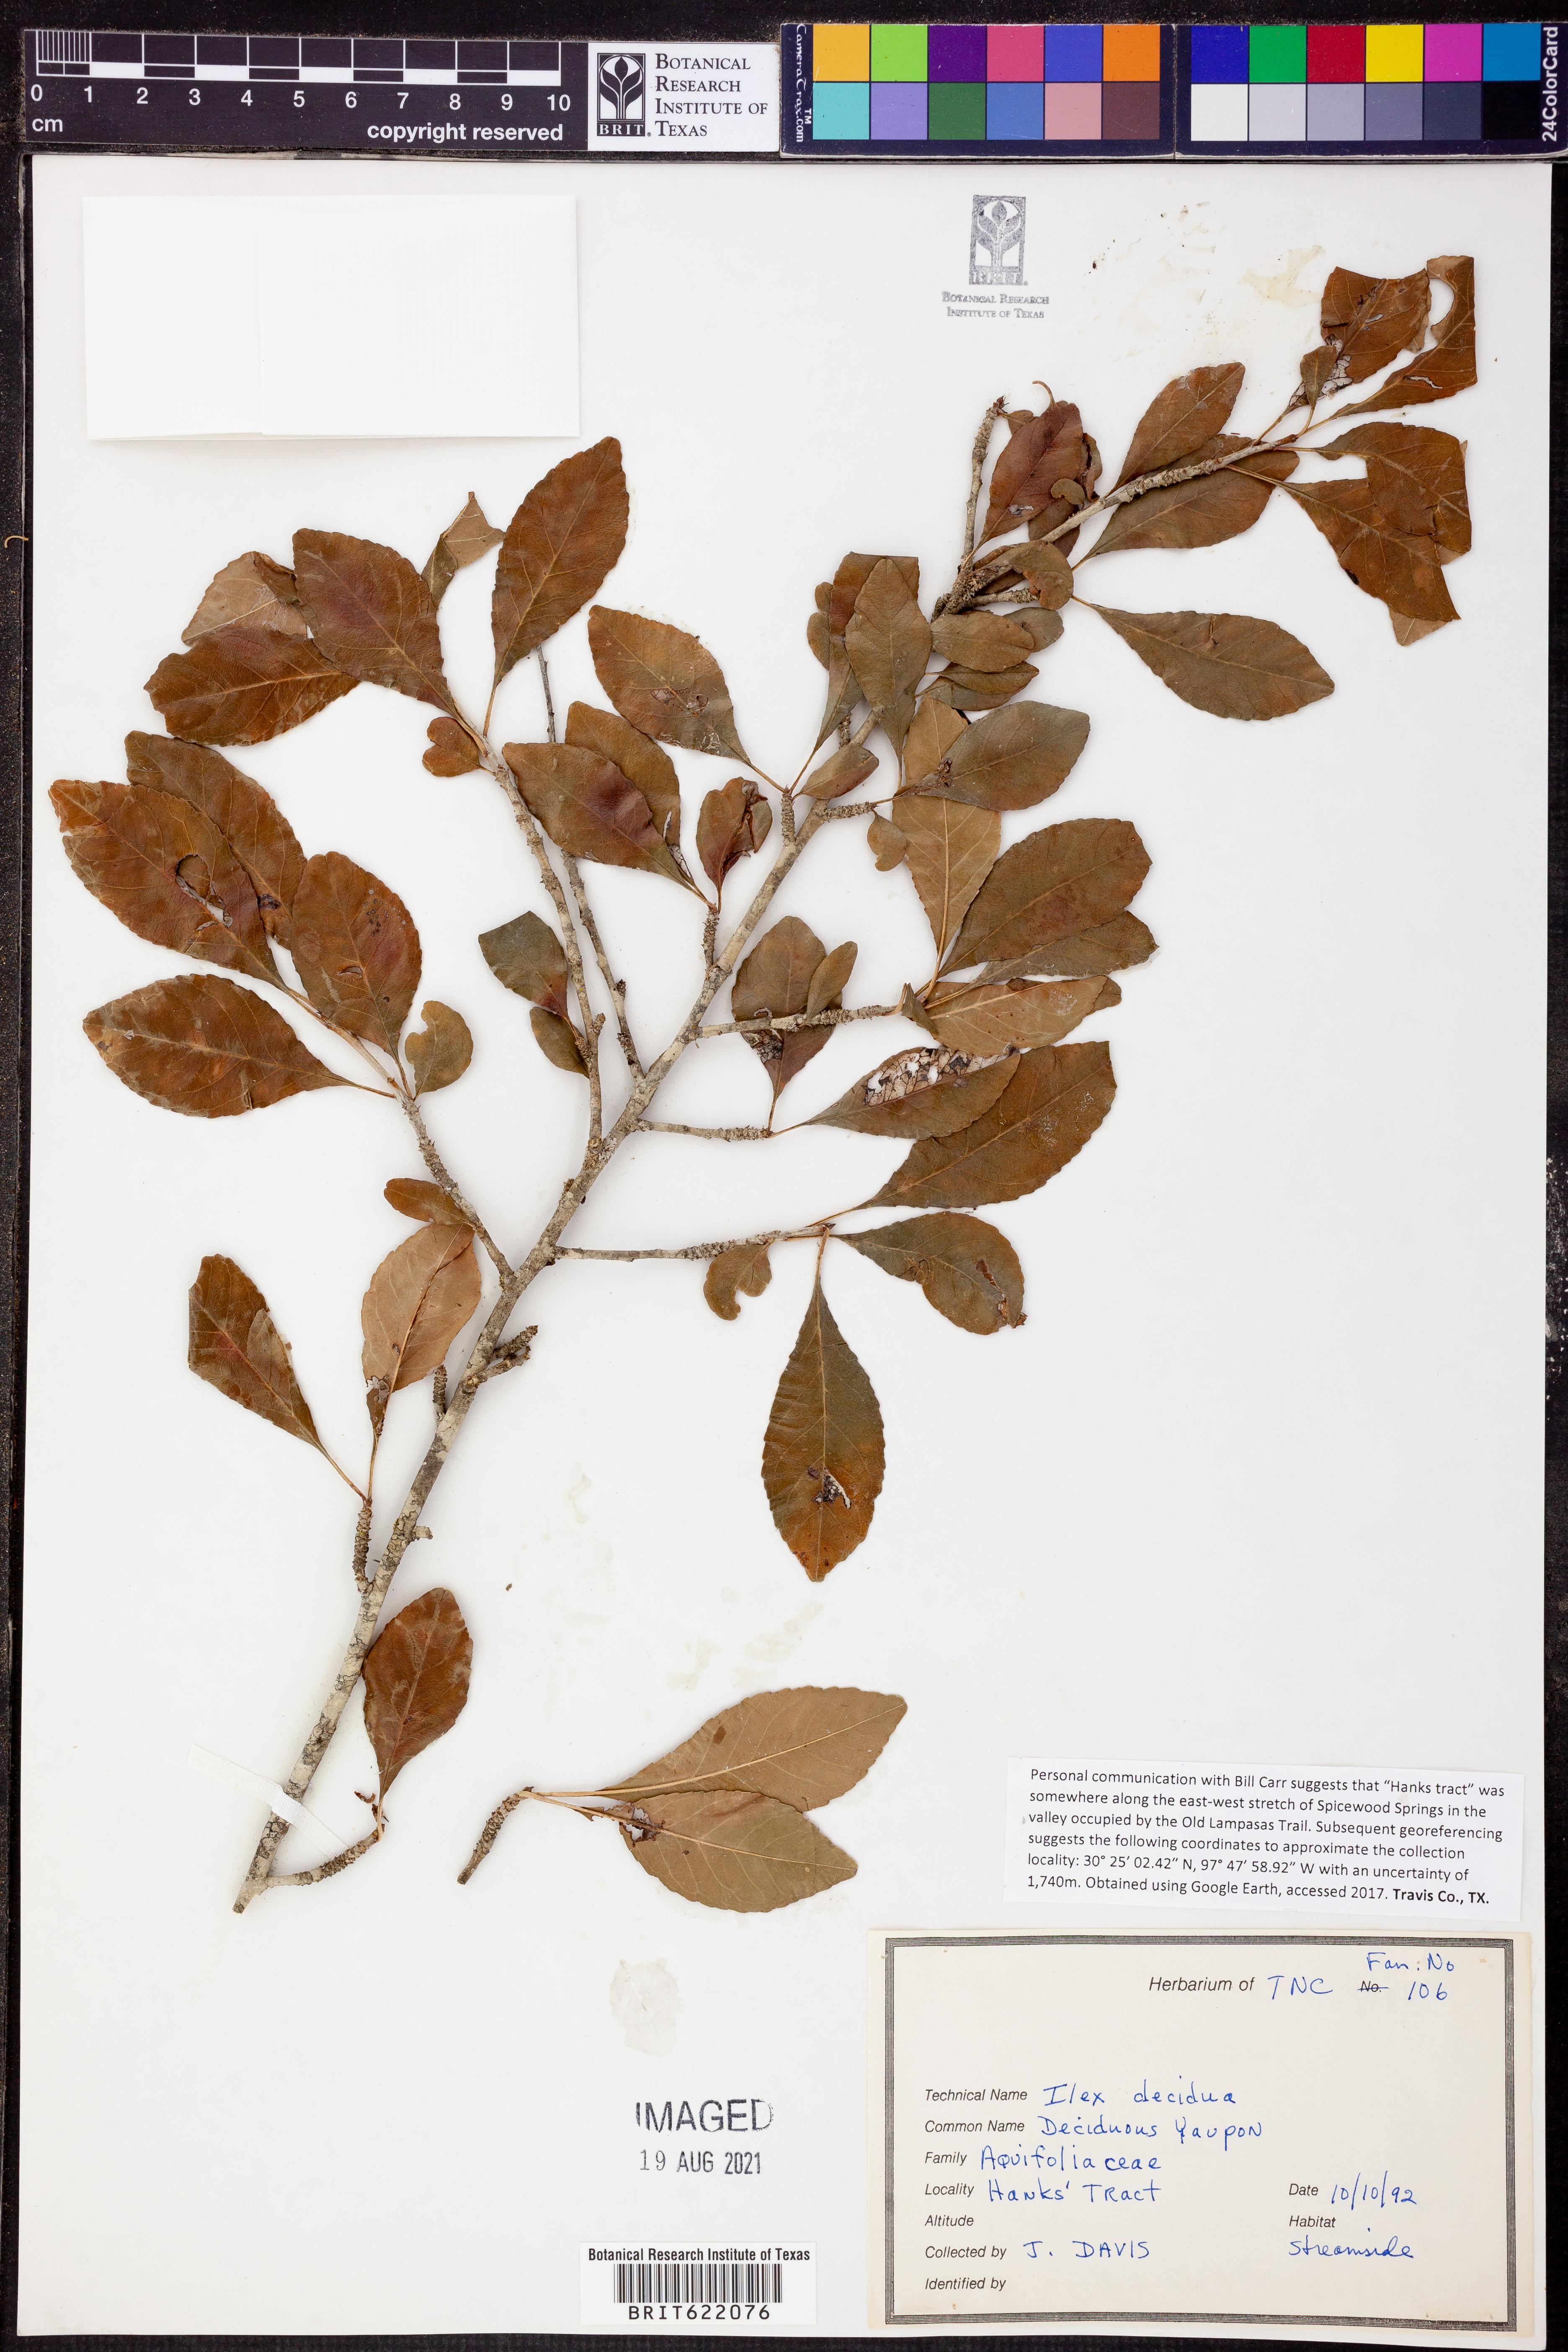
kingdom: Plantae
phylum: Tracheophyta
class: Magnoliopsida
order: Aquifoliales
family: Aquifoliaceae
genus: Ilex
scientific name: Ilex decidua
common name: Possum-haw
